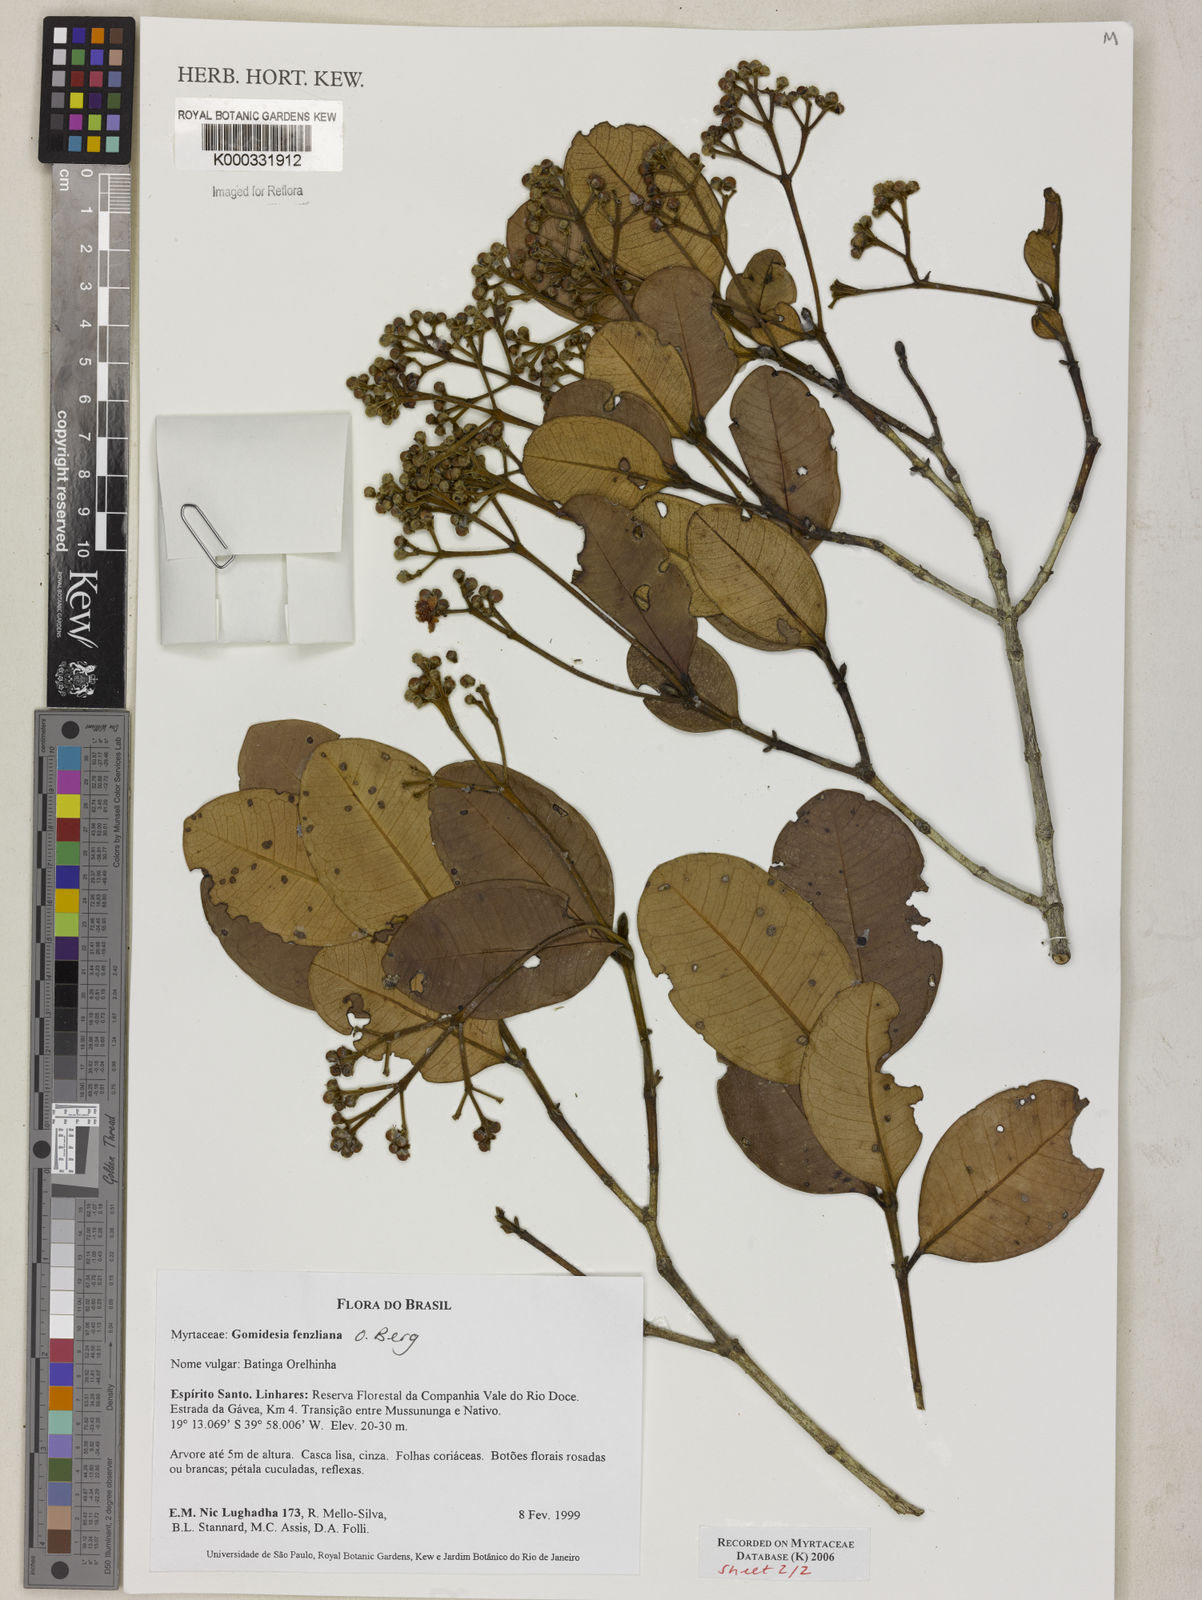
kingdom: Plantae
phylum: Tracheophyta
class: Magnoliopsida
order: Myrtales
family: Myrtaceae
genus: Myrcia
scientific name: Myrcia ilheosensis
